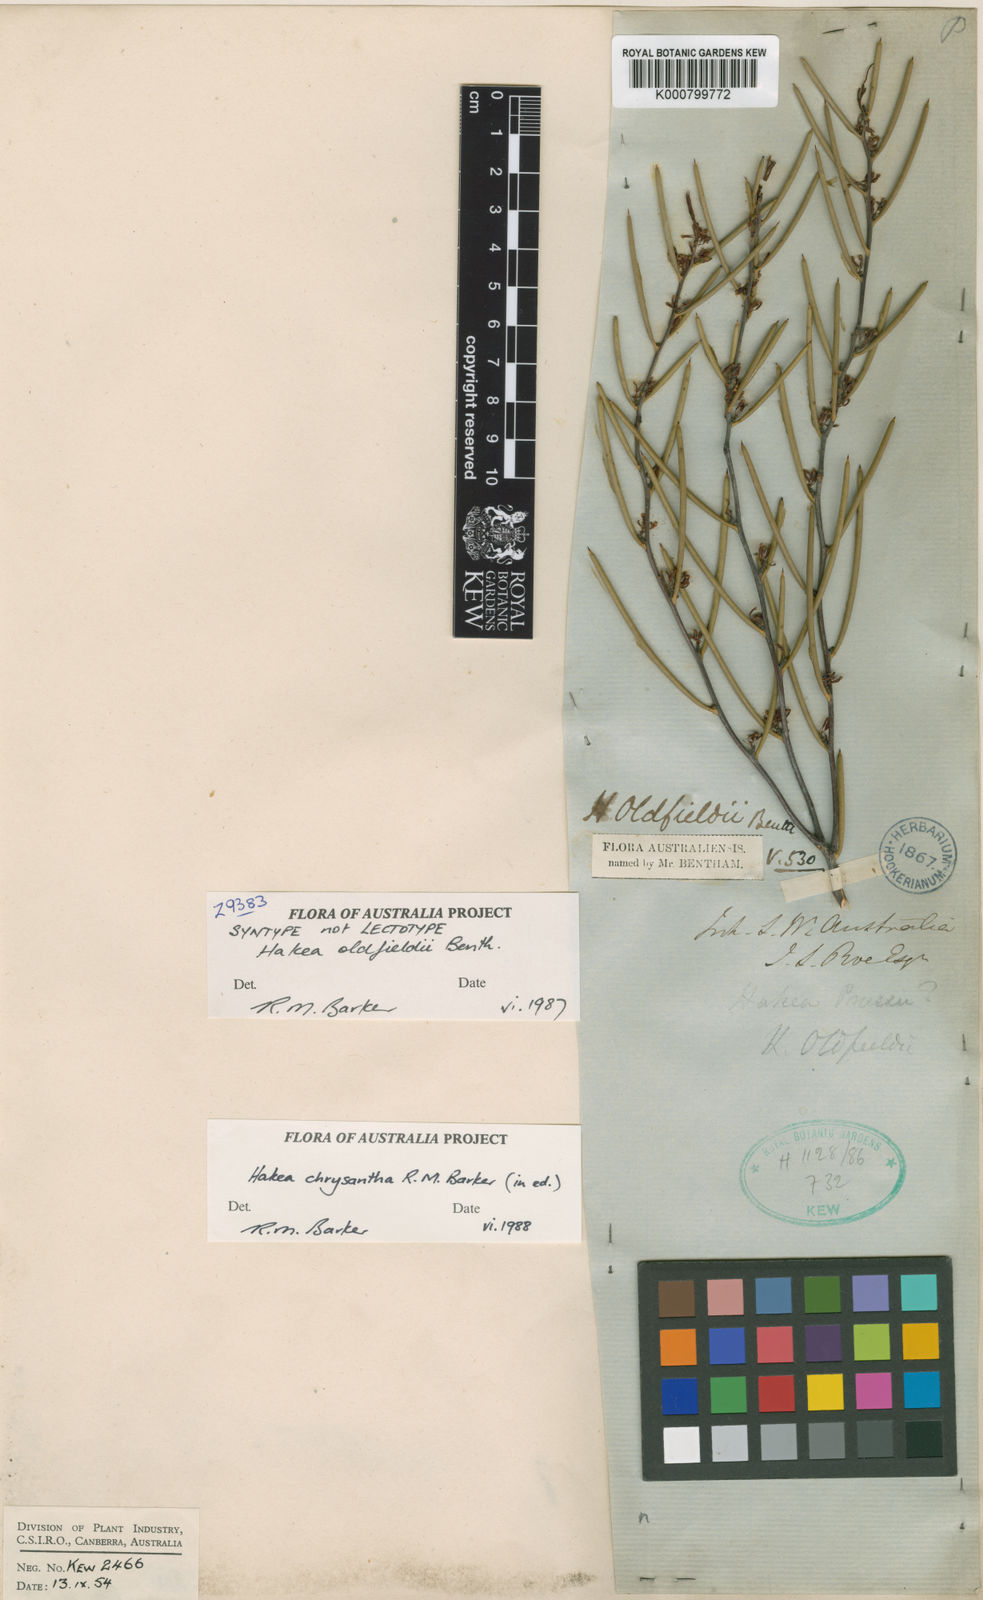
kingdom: Plantae
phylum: Tracheophyta
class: Magnoliopsida
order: Proteales
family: Proteaceae
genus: Hakea
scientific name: Hakea oldfieldii
